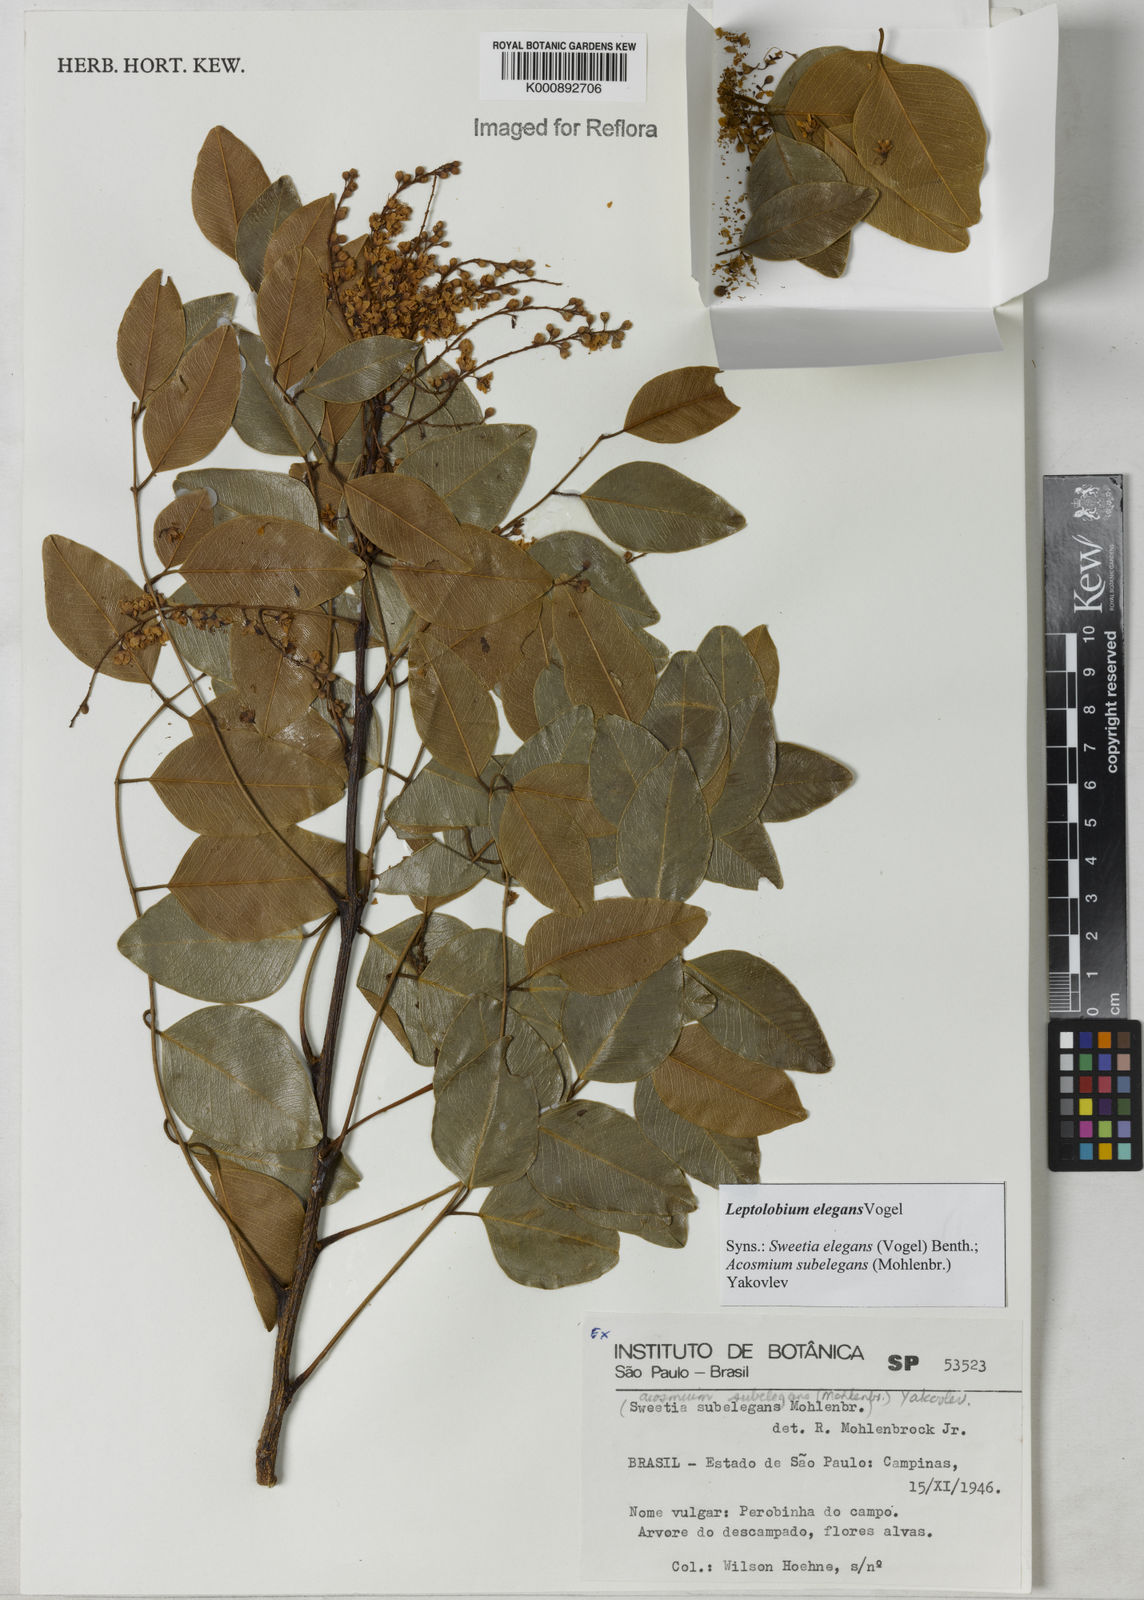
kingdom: Plantae
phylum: Tracheophyta
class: Magnoliopsida
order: Fabales
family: Fabaceae
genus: Leptolobium
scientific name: Leptolobium elegans
